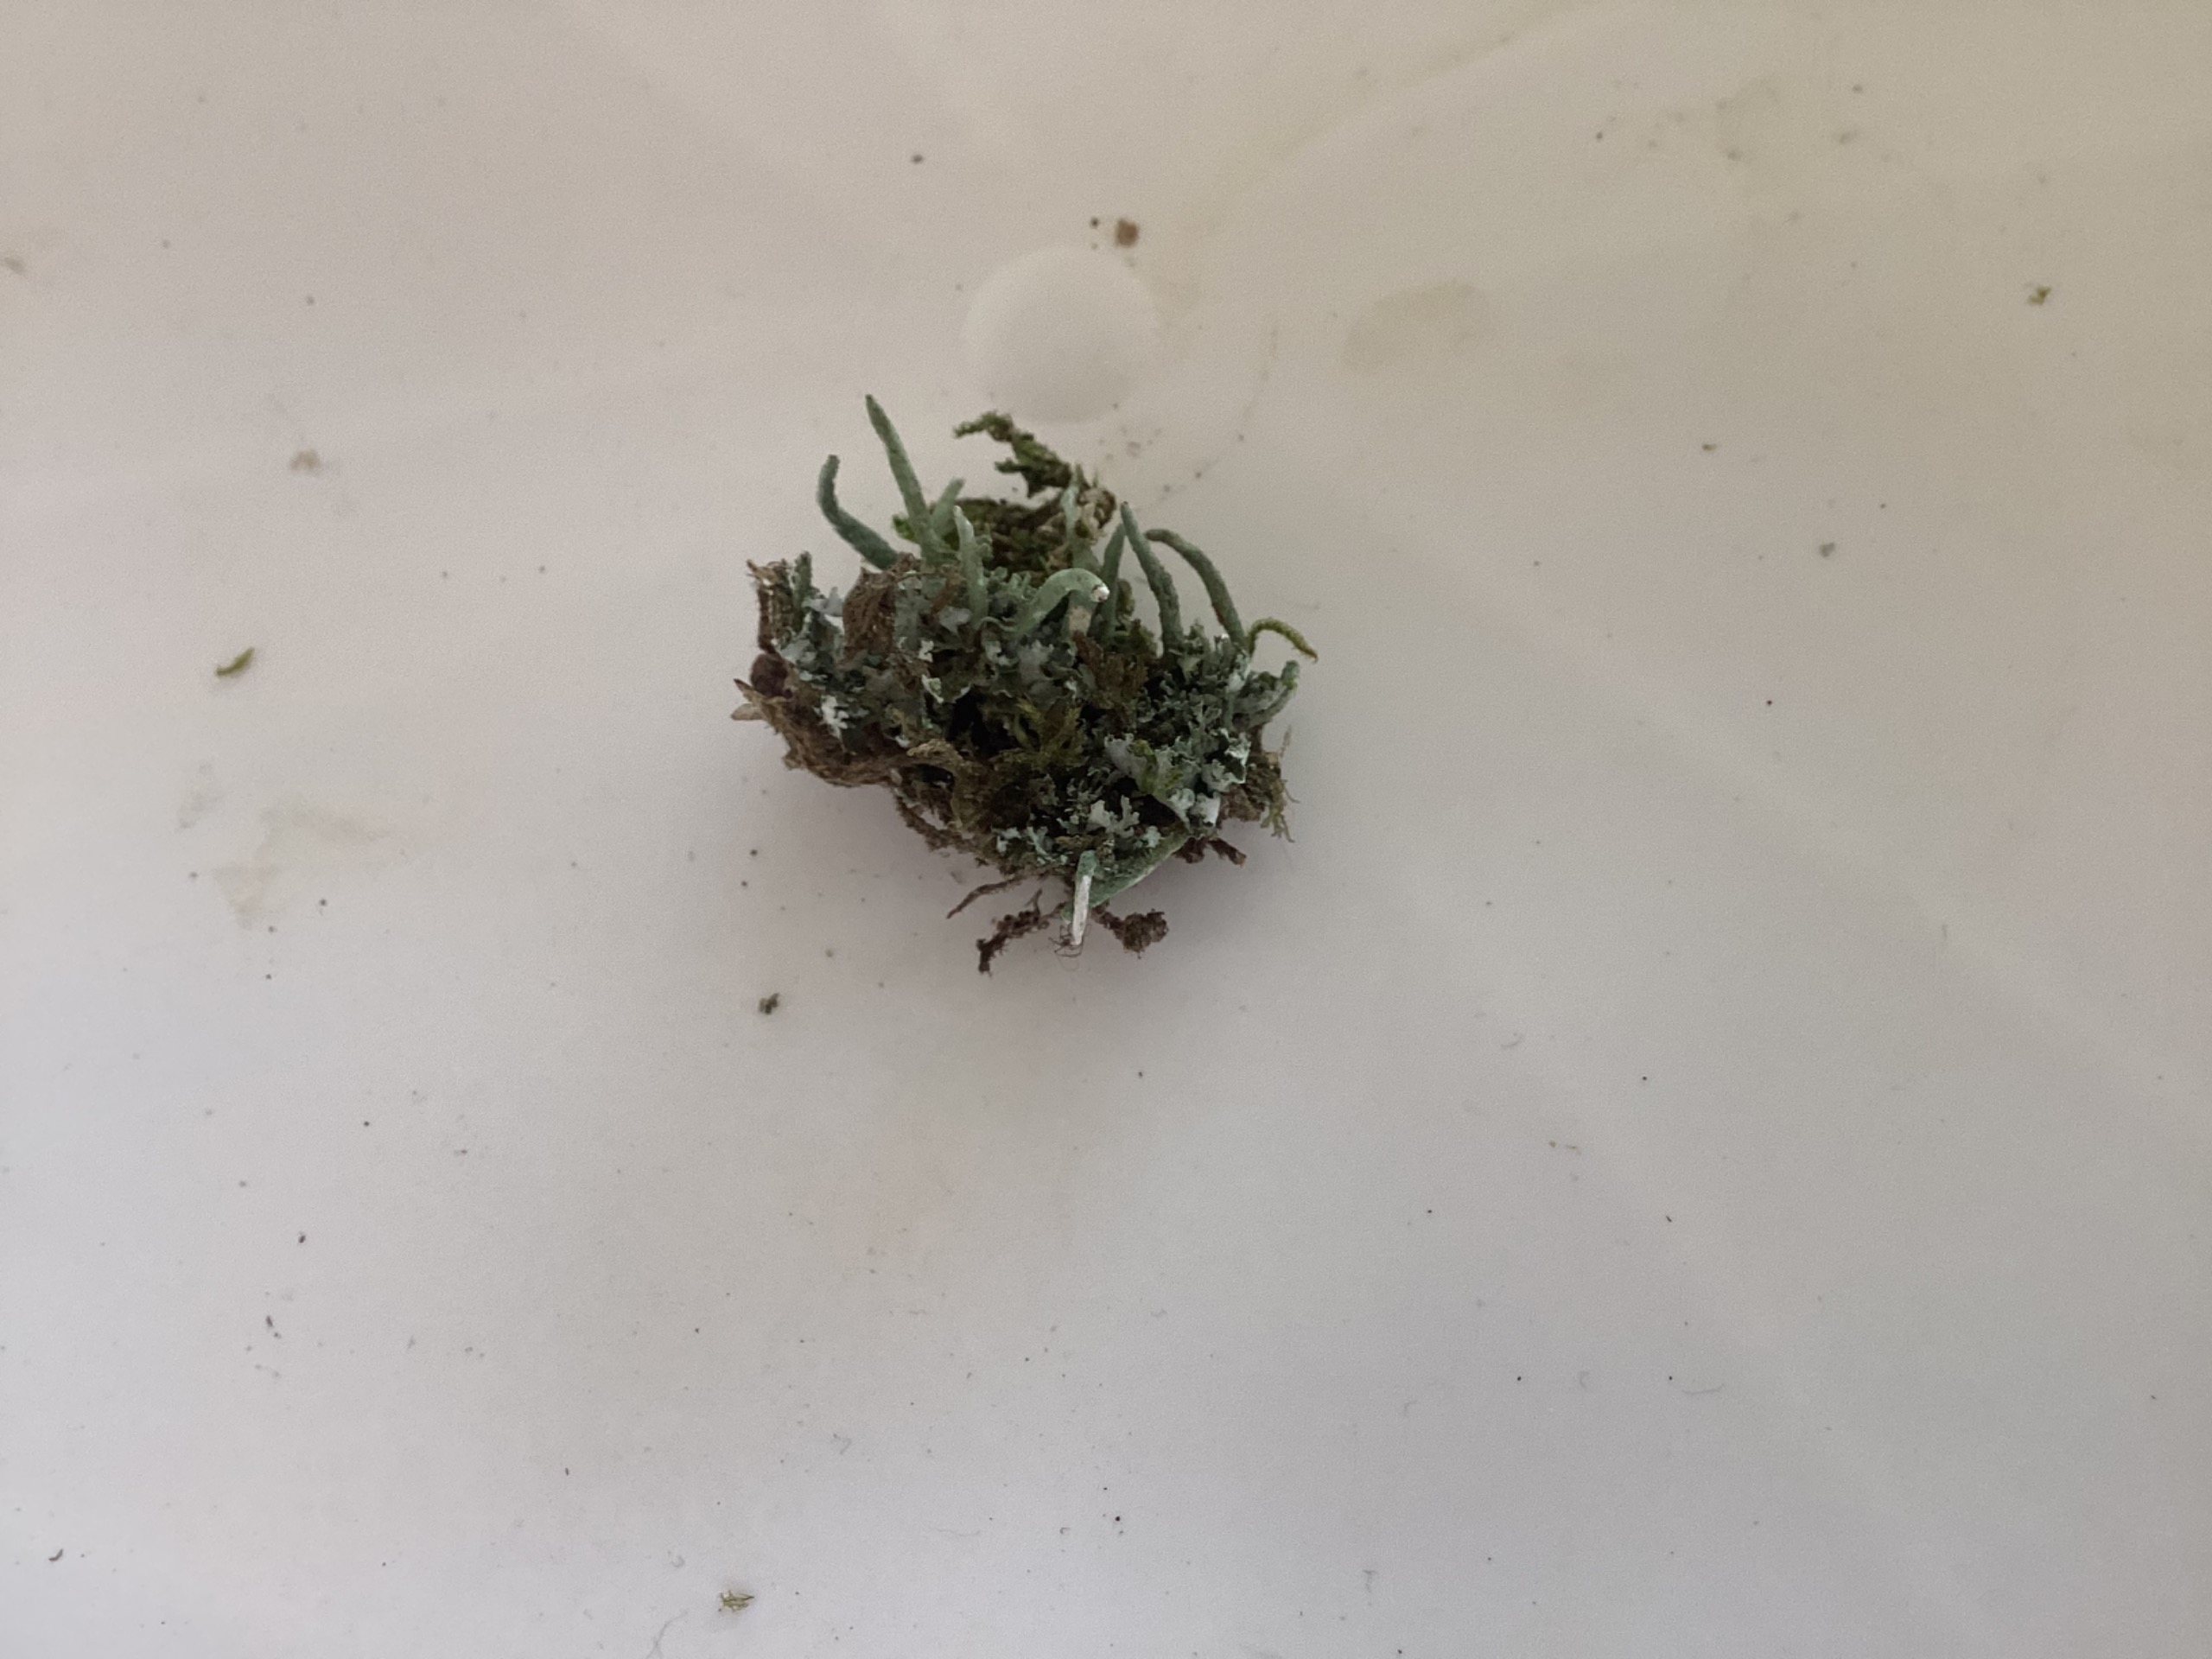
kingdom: Fungi
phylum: Ascomycota
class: Lecanoromycetes
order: Lecanorales
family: Cladoniaceae
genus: Cladonia
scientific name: Cladonia coniocraea
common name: Træfods-bægerlav
